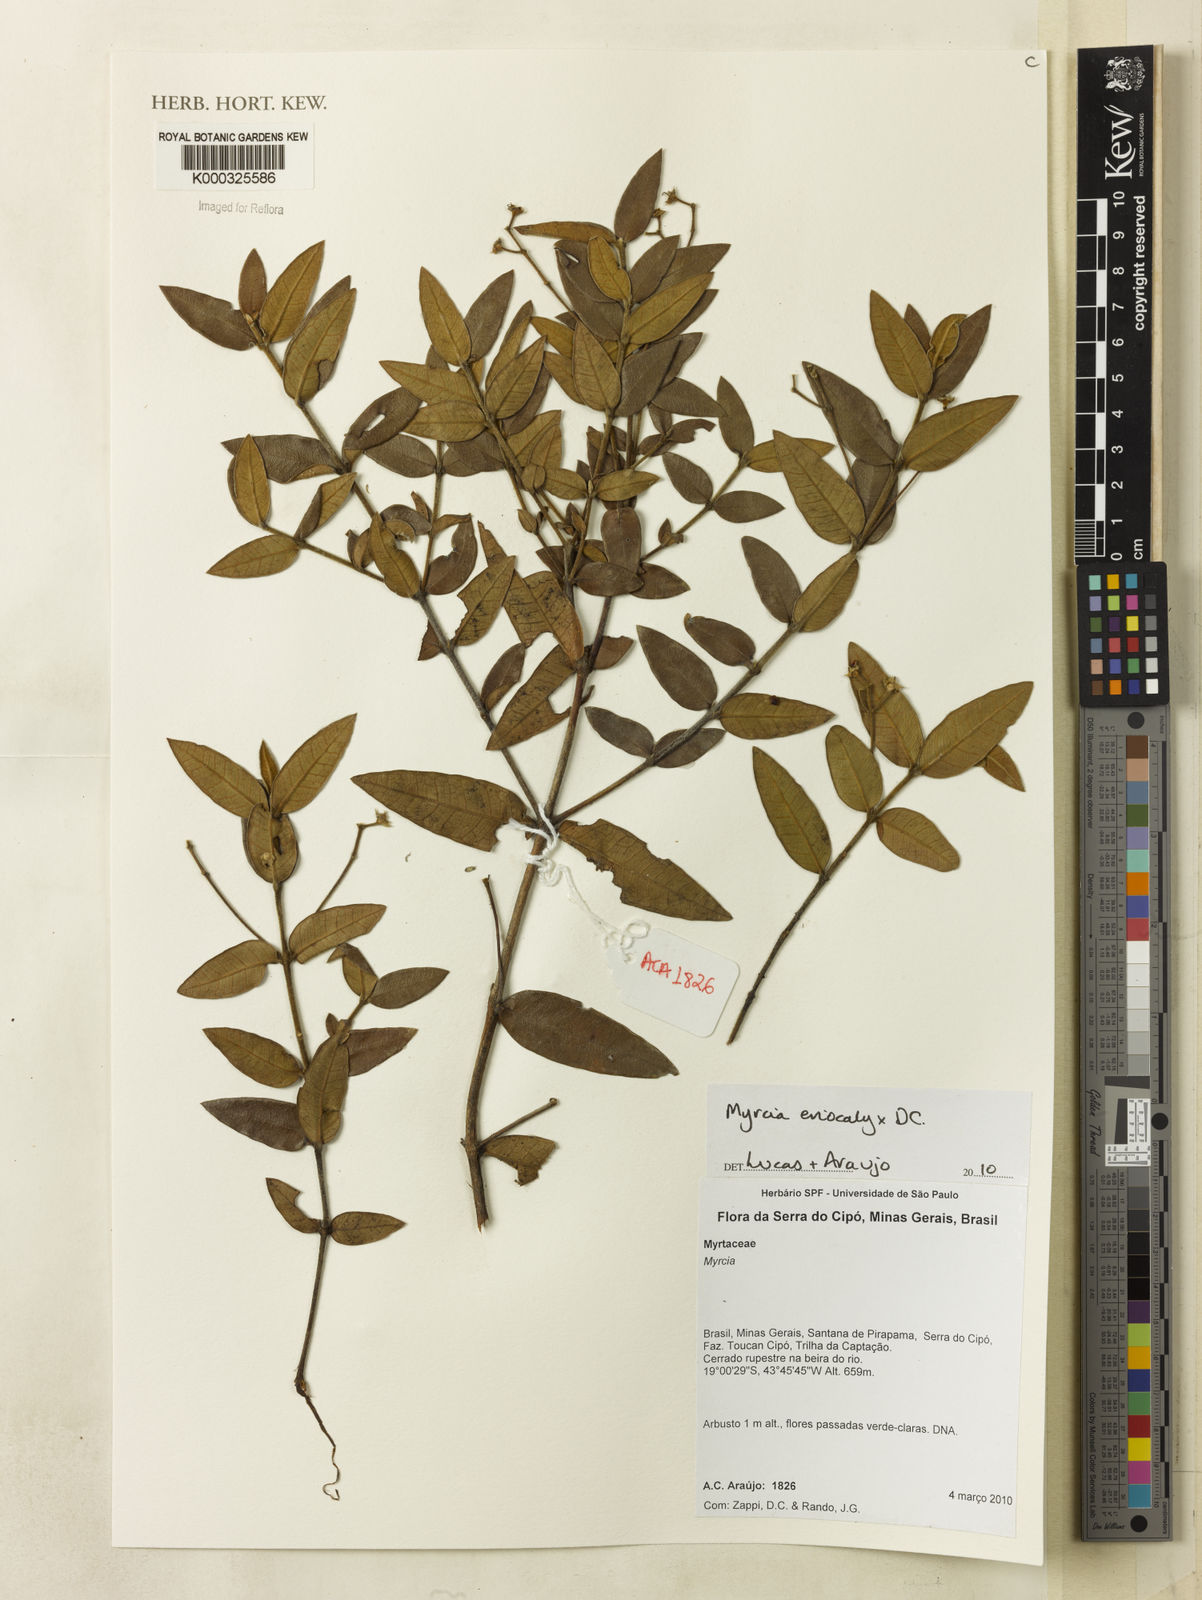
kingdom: Plantae
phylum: Tracheophyta
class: Magnoliopsida
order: Myrtales
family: Myrtaceae
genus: Myrcia
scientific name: Myrcia eriocalyx
